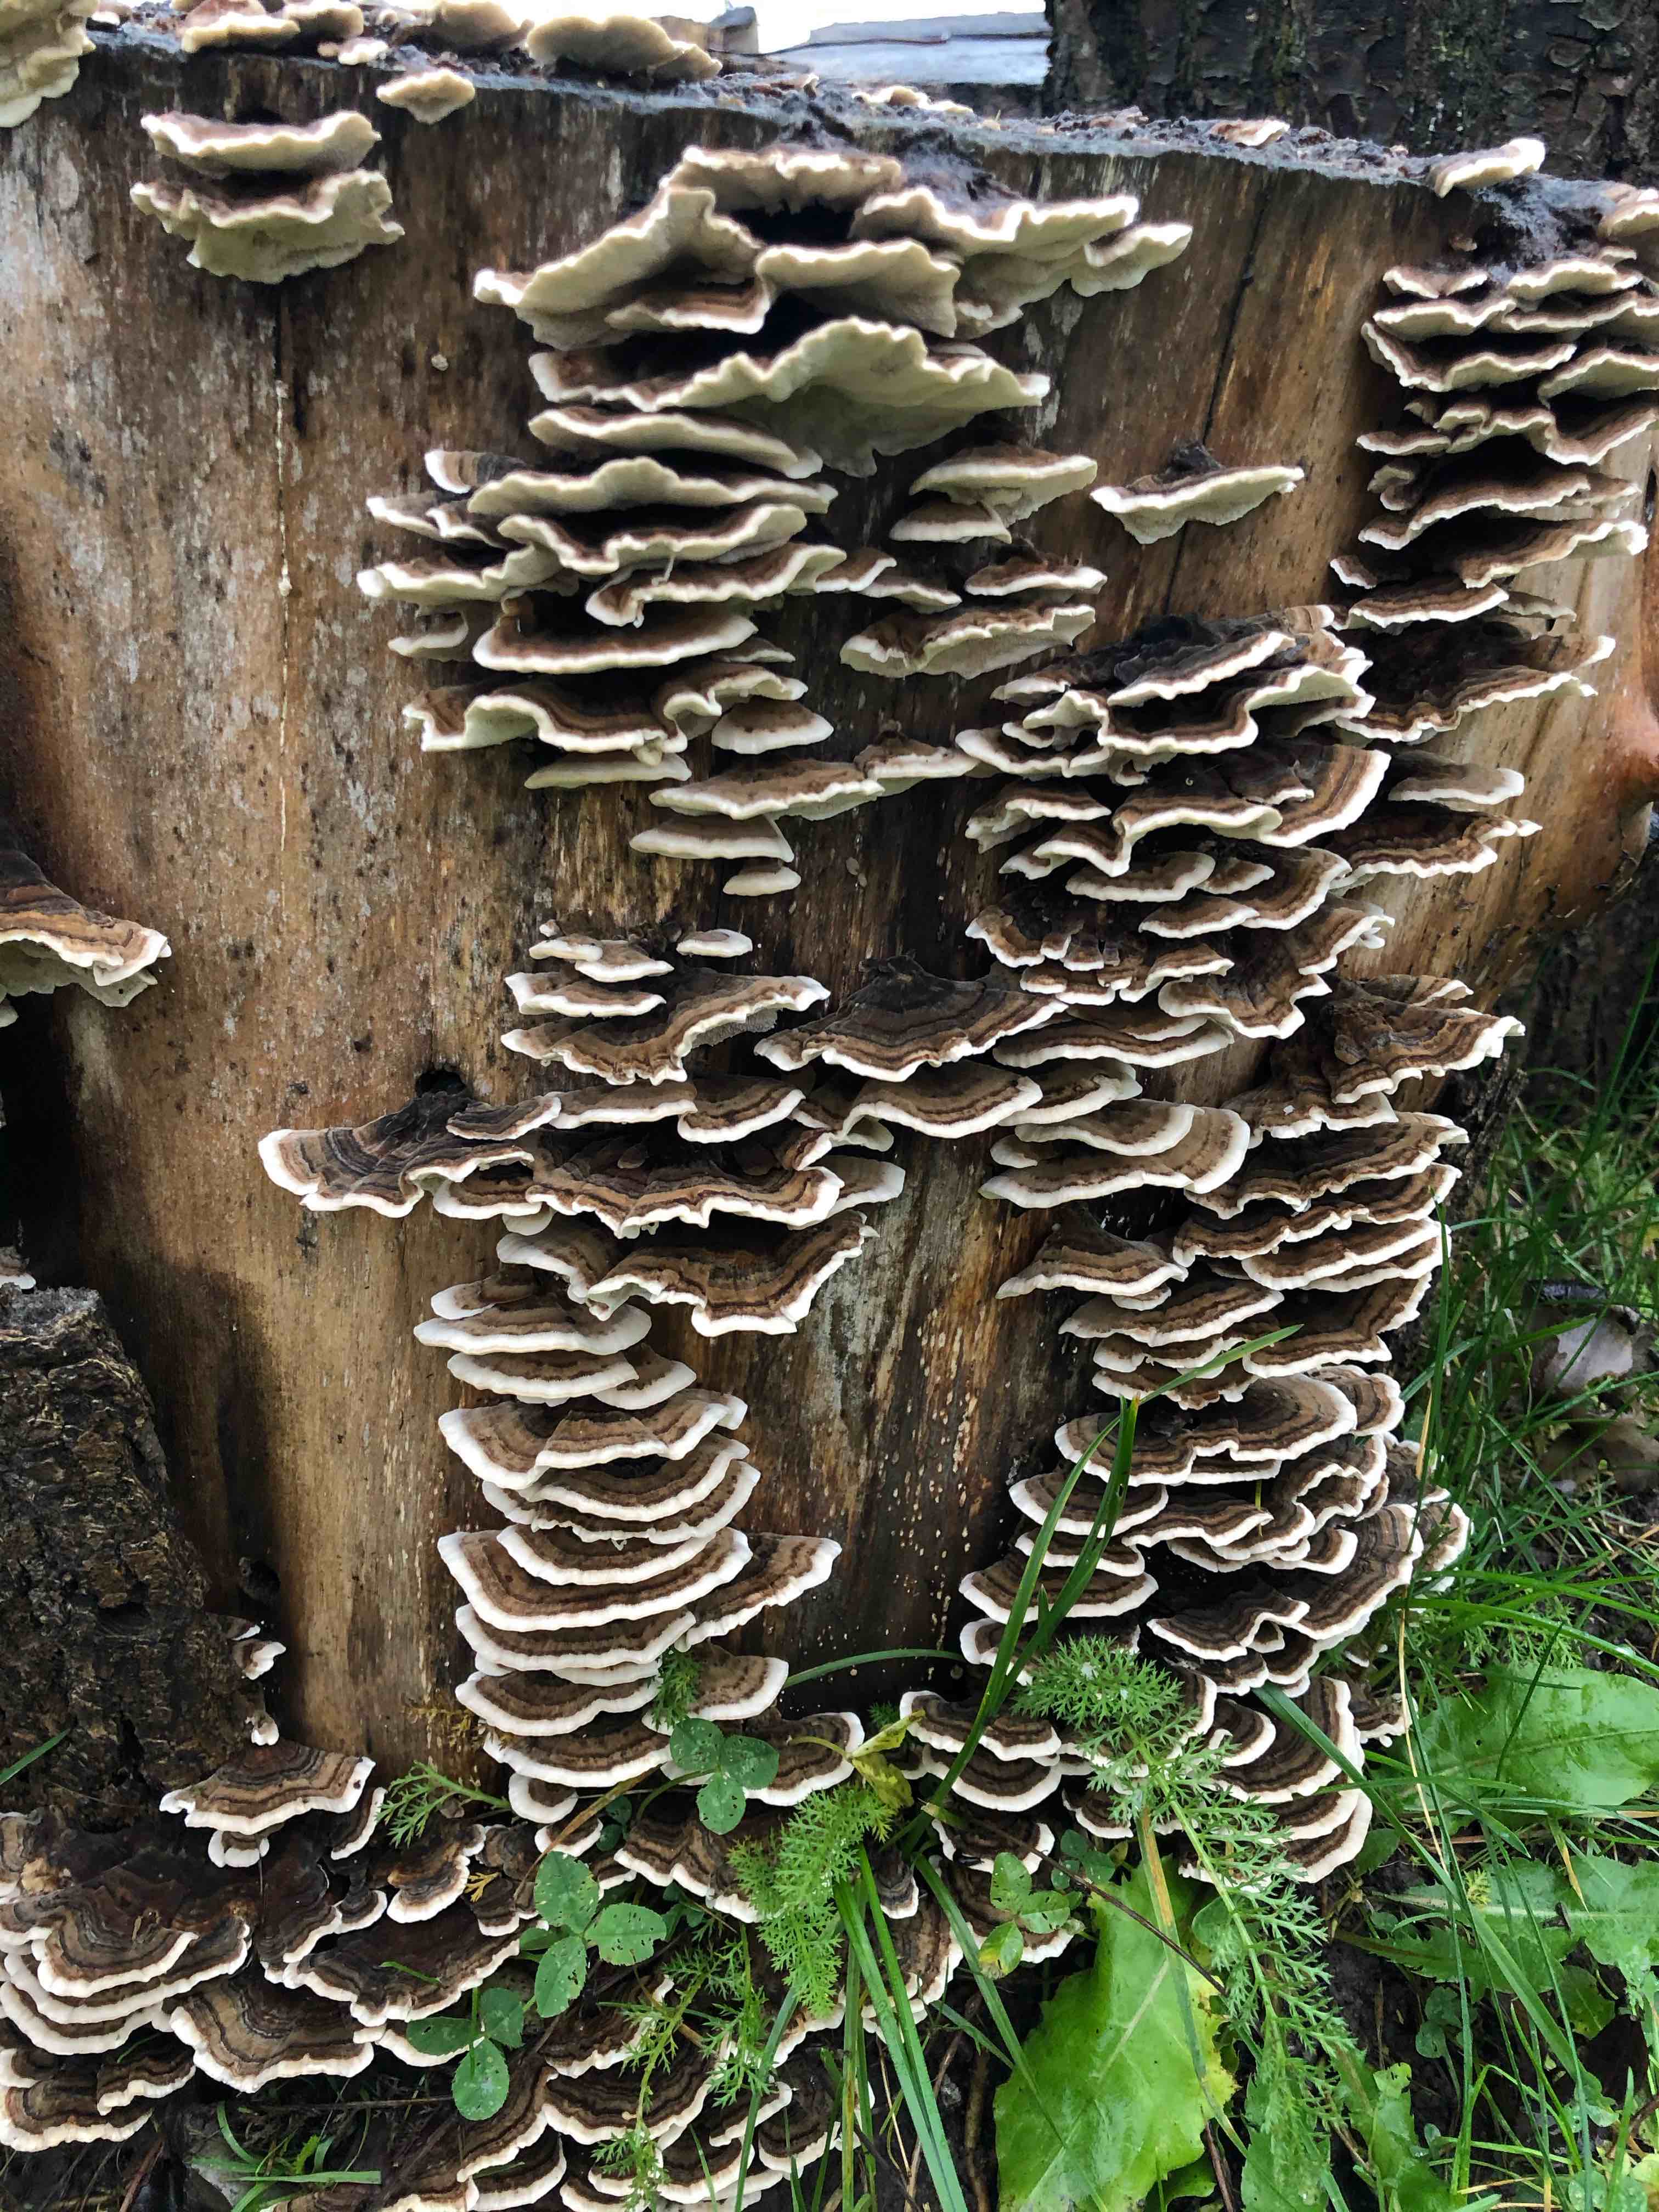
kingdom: Fungi
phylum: Basidiomycota
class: Agaricomycetes
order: Polyporales
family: Polyporaceae
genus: Trametes
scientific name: Trametes versicolor
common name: broget læderporesvamp
